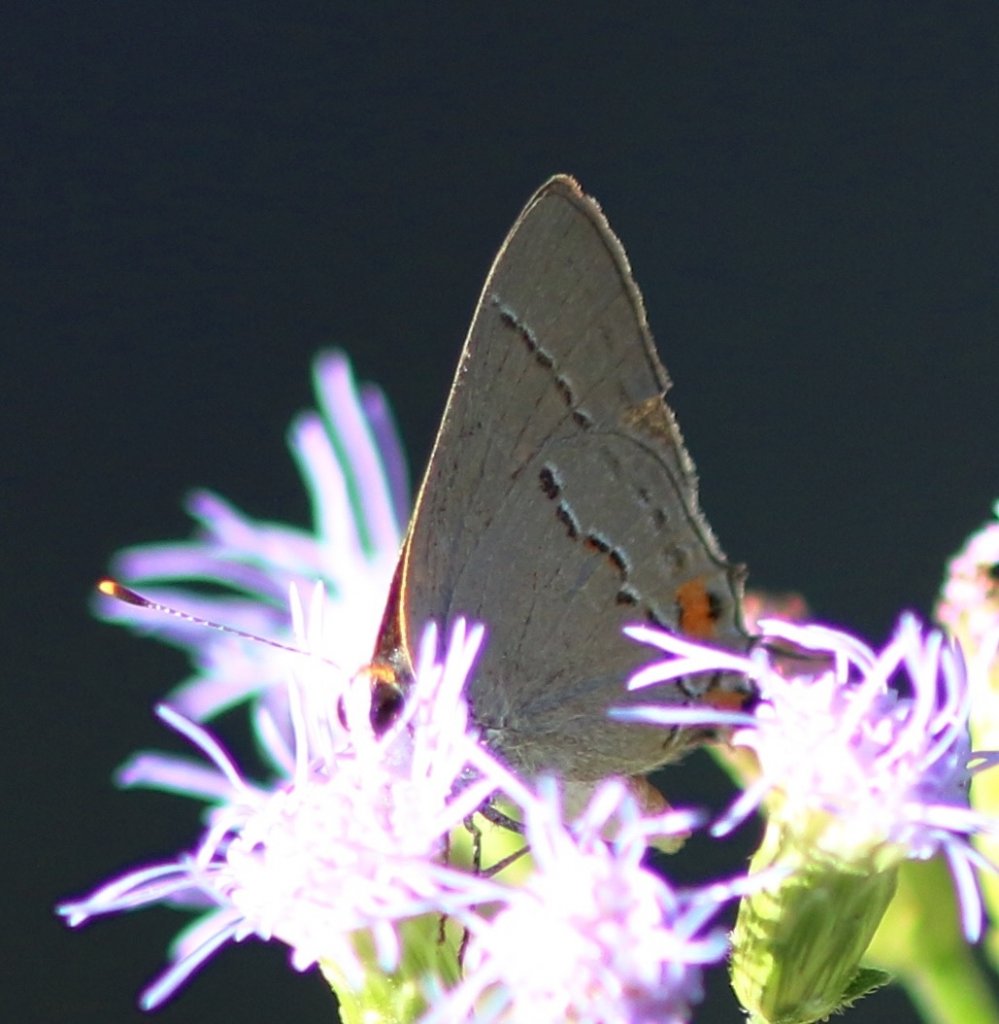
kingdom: Animalia
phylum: Arthropoda
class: Insecta
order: Lepidoptera
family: Lycaenidae
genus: Strymon
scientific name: Strymon melinus
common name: Gray Hairstreak
